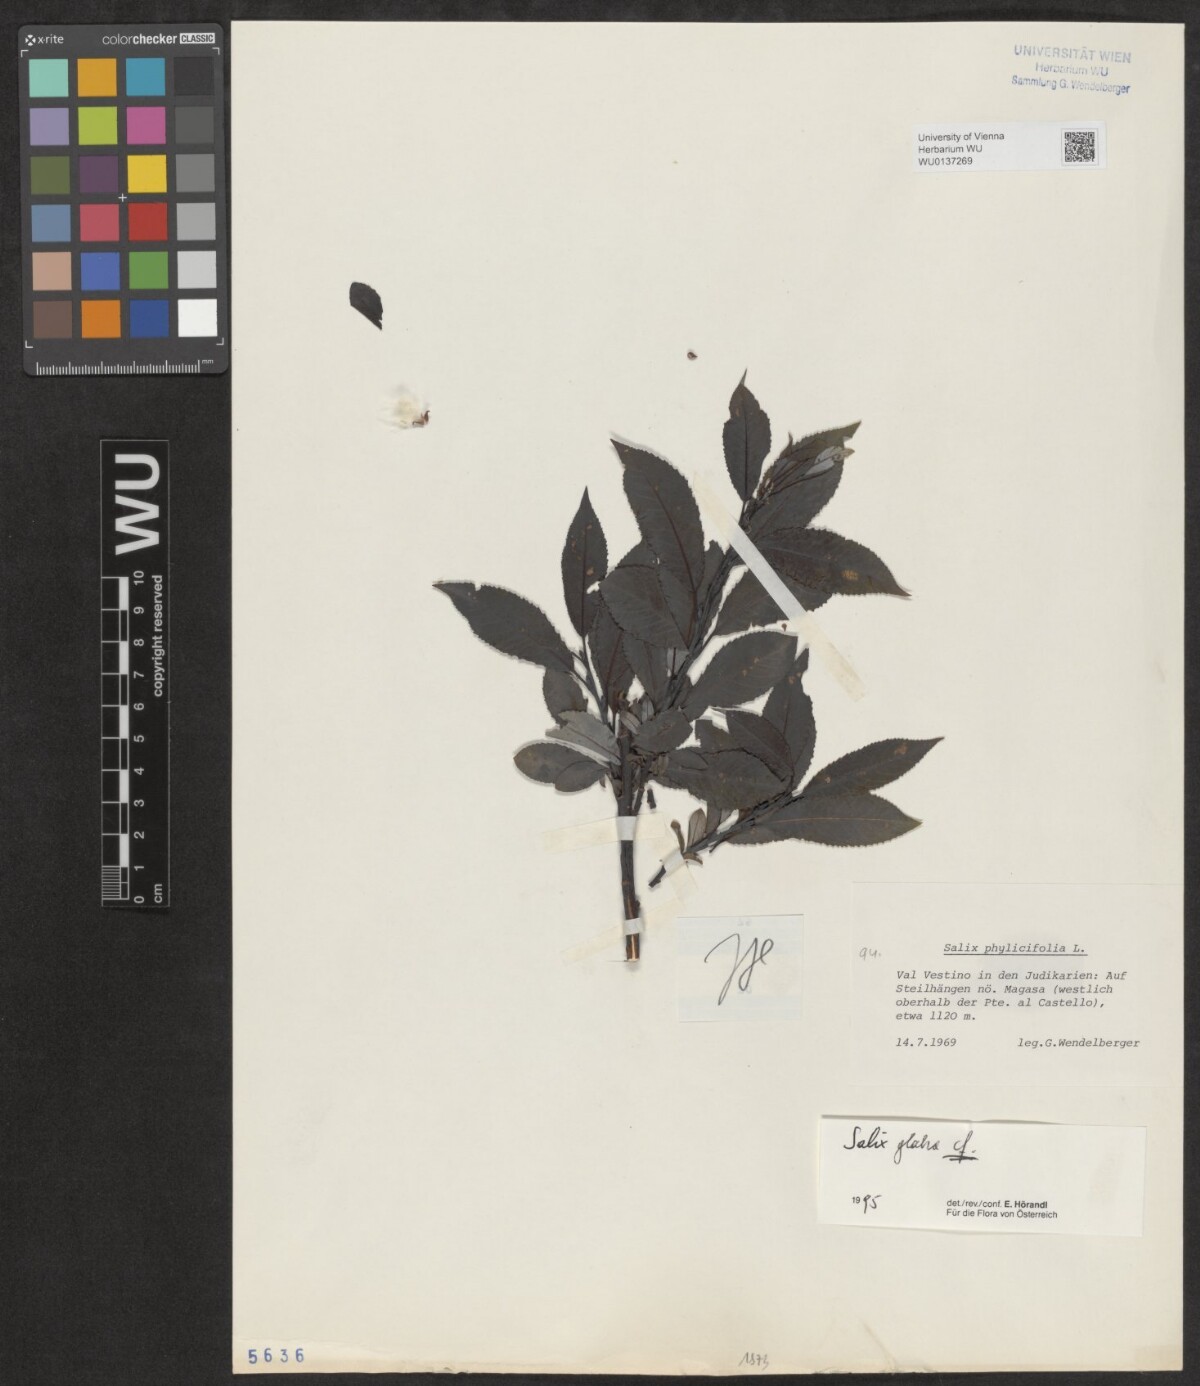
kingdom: Plantae
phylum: Tracheophyta
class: Magnoliopsida
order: Malpighiales
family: Salicaceae
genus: Salix
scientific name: Salix glabra
